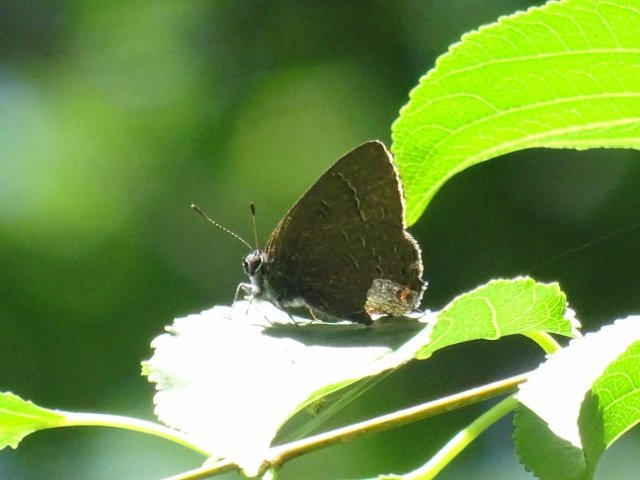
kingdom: Animalia
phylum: Arthropoda
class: Insecta
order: Lepidoptera
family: Lycaenidae
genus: Satyrium
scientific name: Satyrium calanus
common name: Banded Hairstreak
